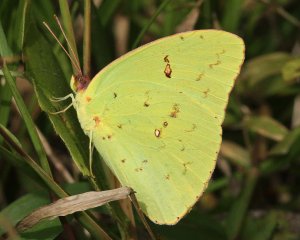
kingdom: Animalia
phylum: Arthropoda
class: Insecta
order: Lepidoptera
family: Pieridae
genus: Phoebis
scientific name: Phoebis sennae
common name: Cloudless Sulphur
